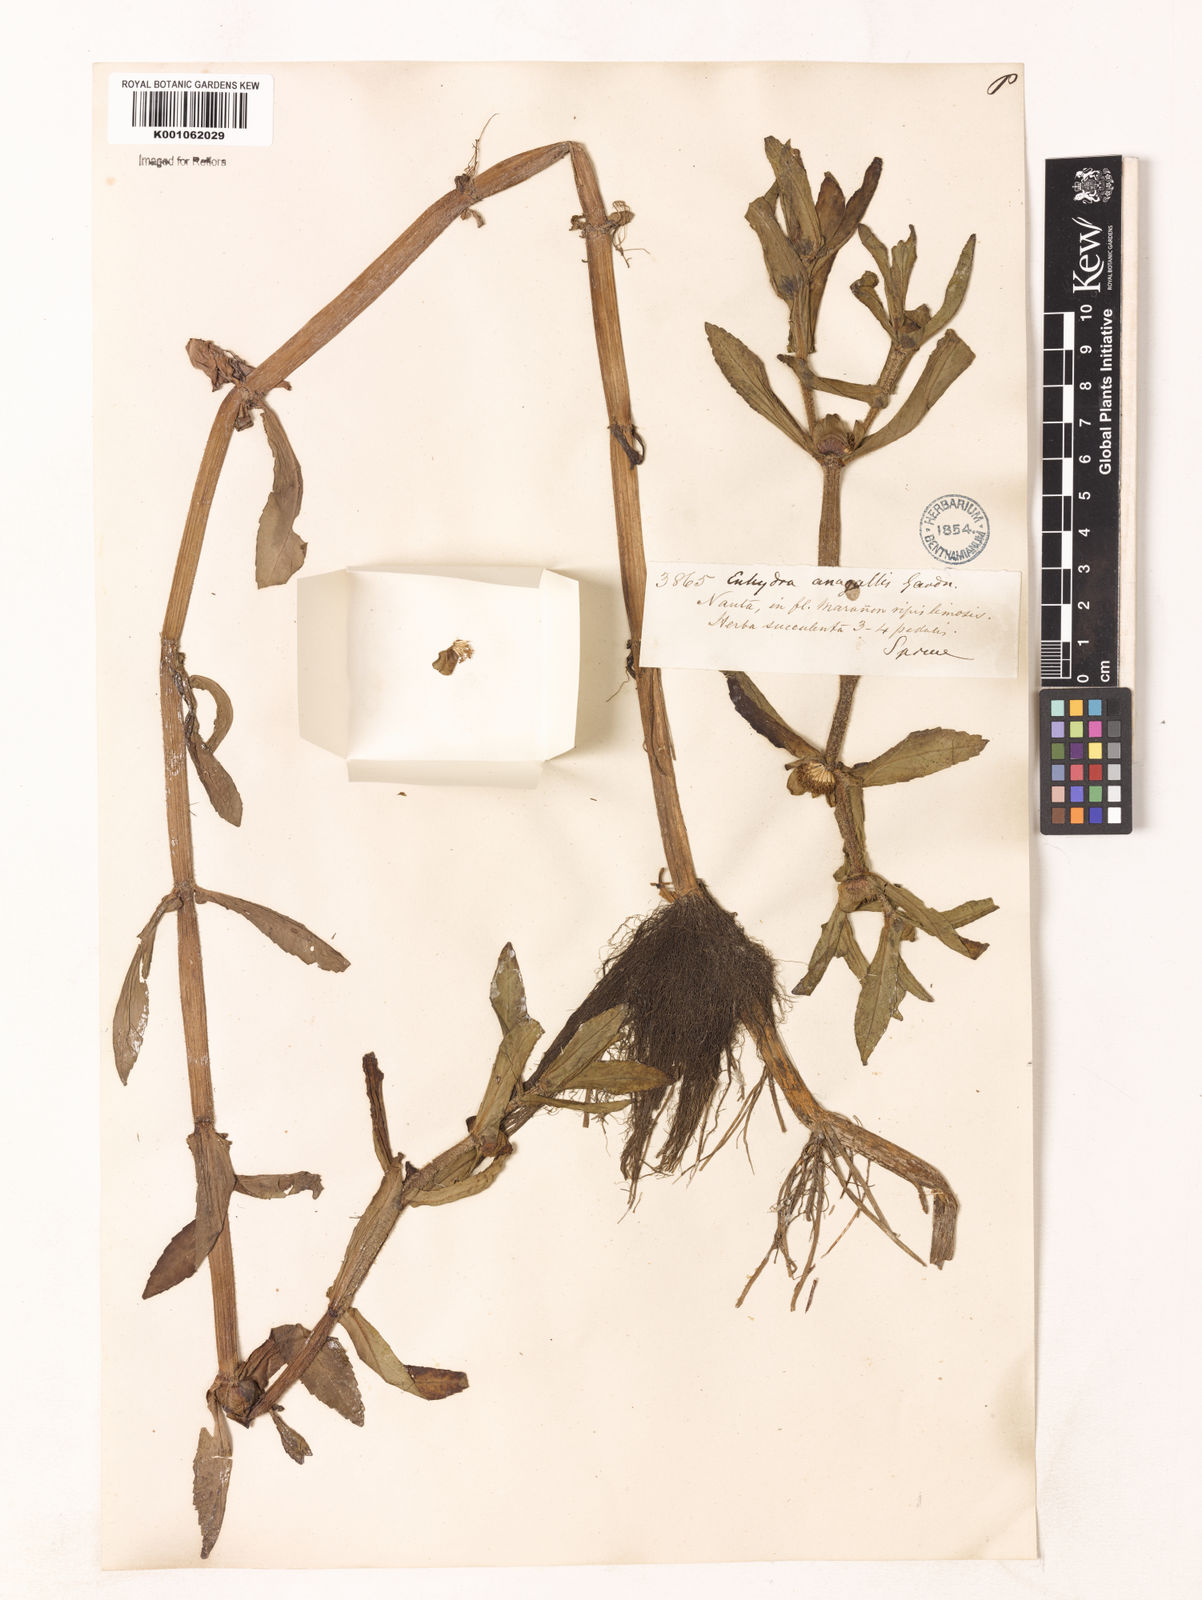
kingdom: Plantae
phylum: Tracheophyta
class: Magnoliopsida
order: Asterales
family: Asteraceae
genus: Acanthospermum
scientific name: Acanthospermum australe
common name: Paraguayan starbur
